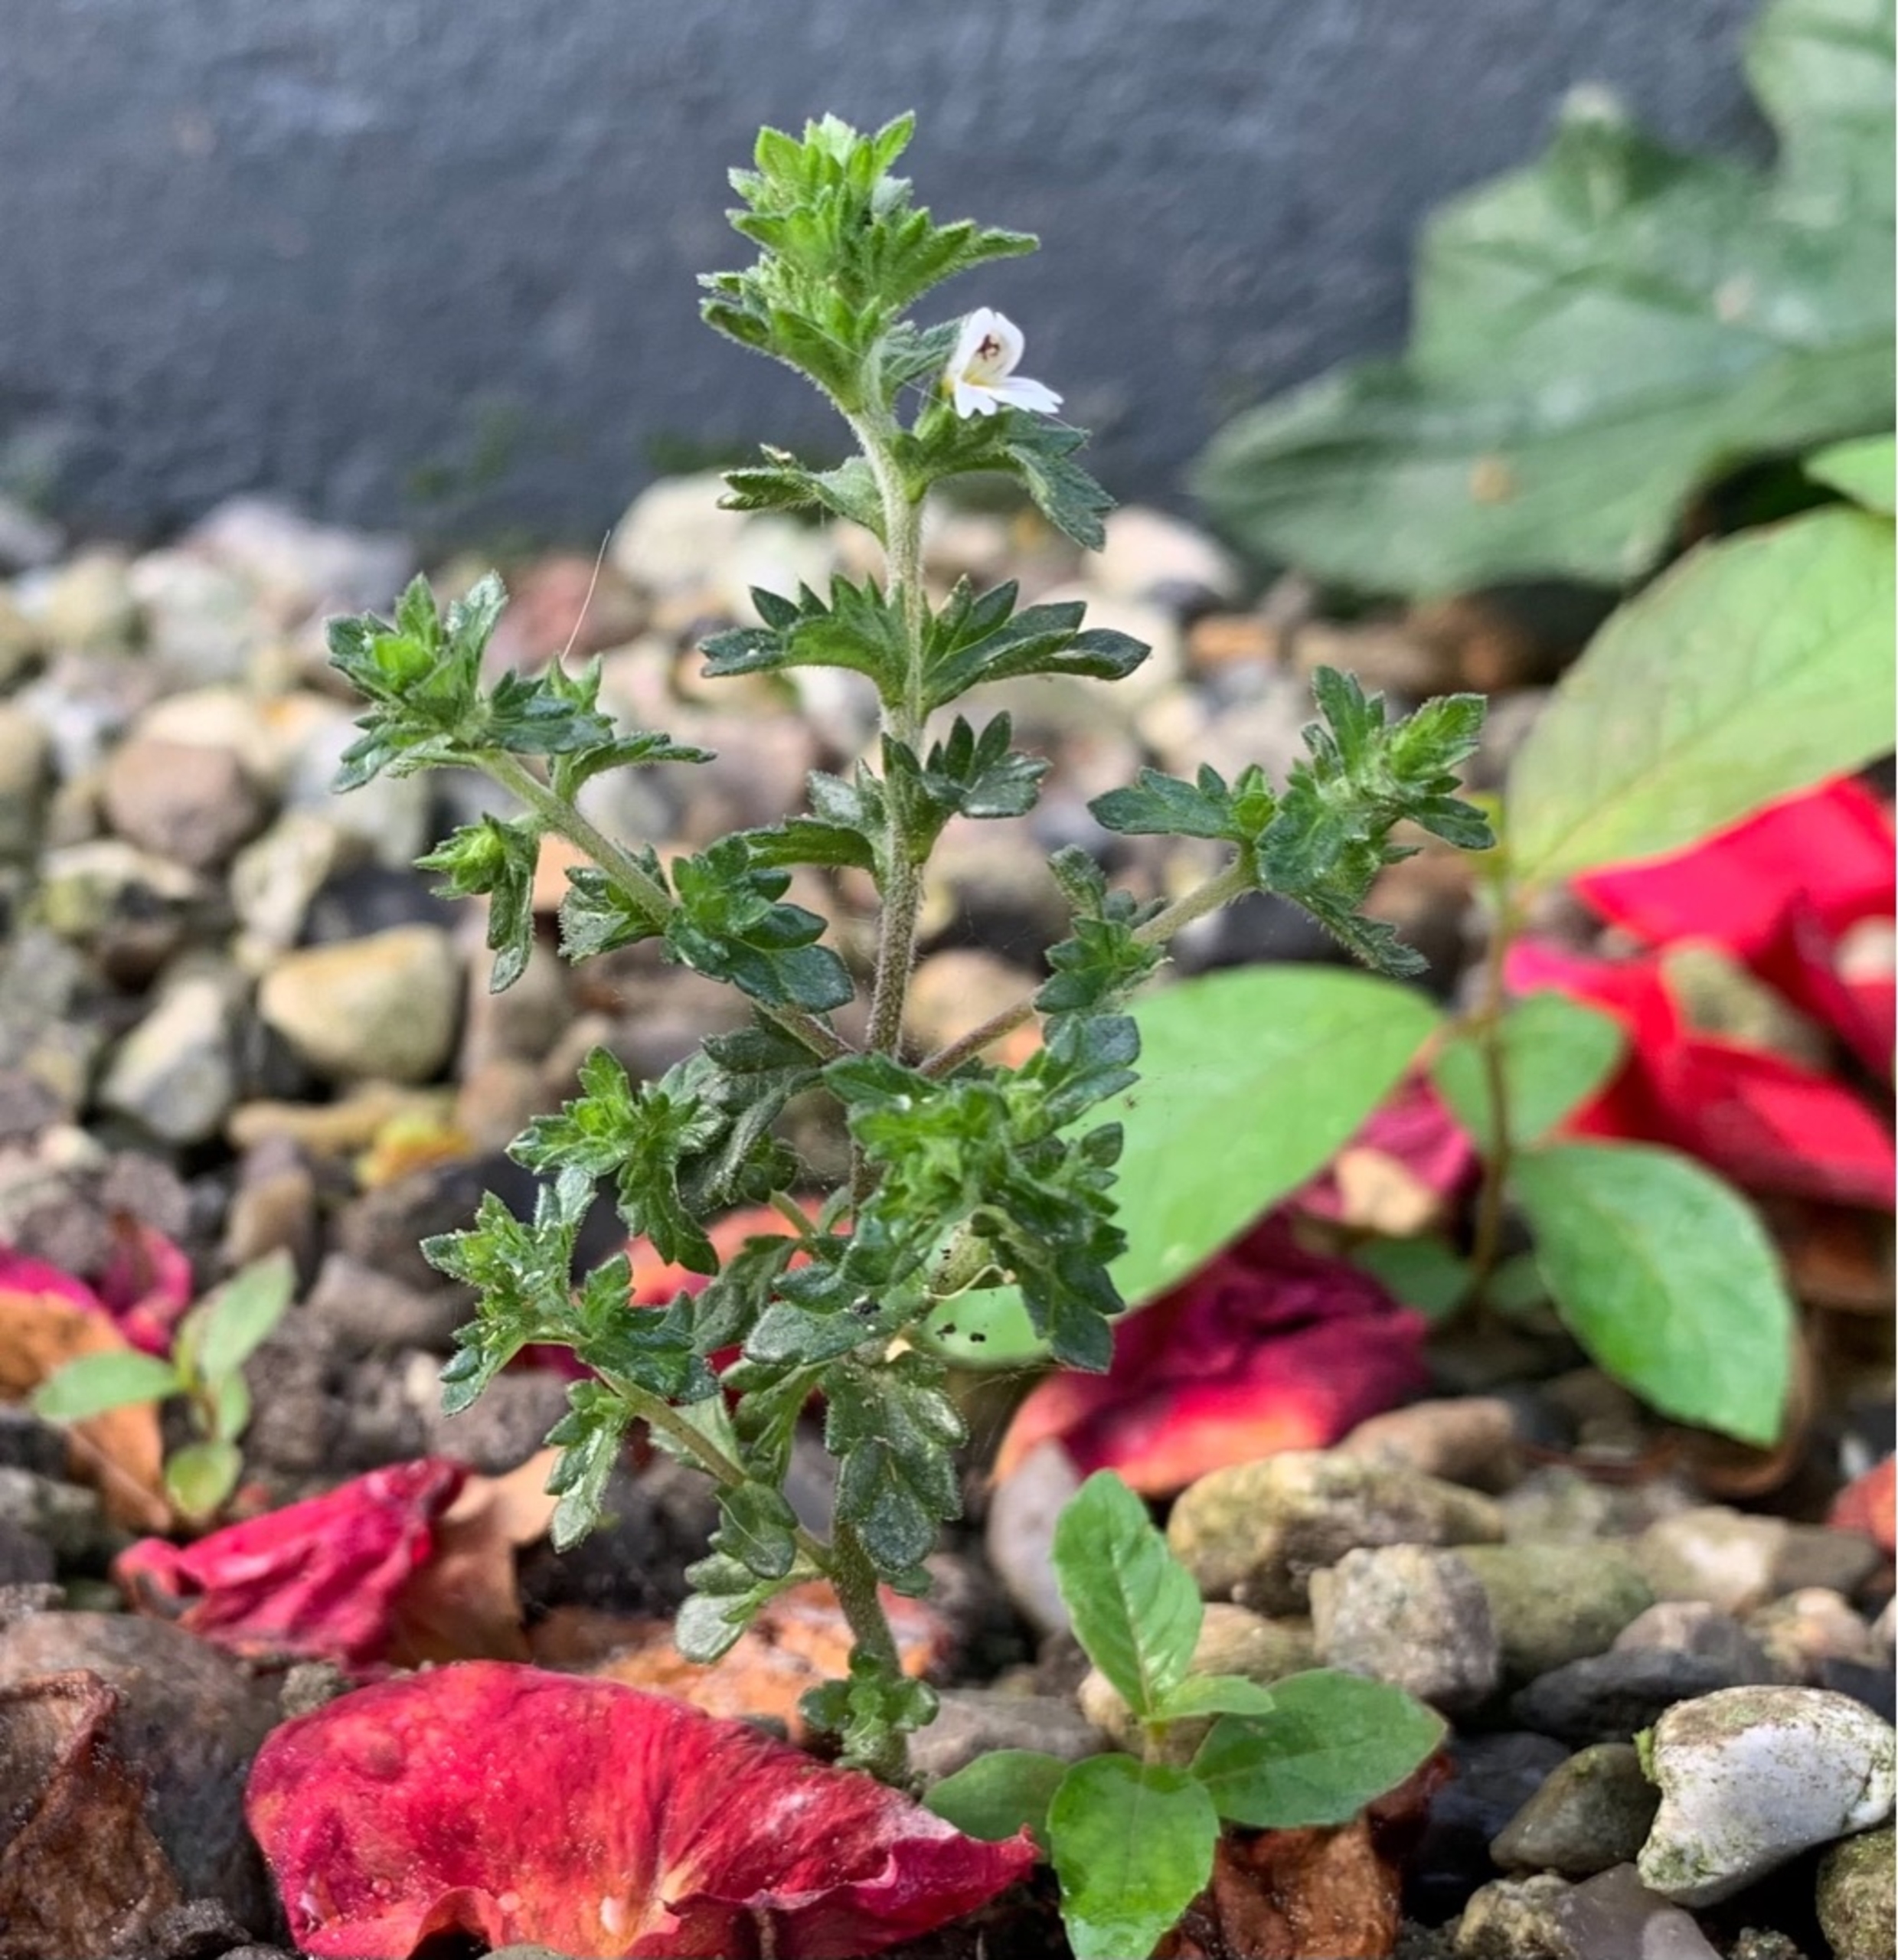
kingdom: Plantae
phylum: Tracheophyta
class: Magnoliopsida
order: Lamiales
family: Orobanchaceae
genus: Euphrasia
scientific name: Euphrasia stricta
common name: Spids øjentrøst
